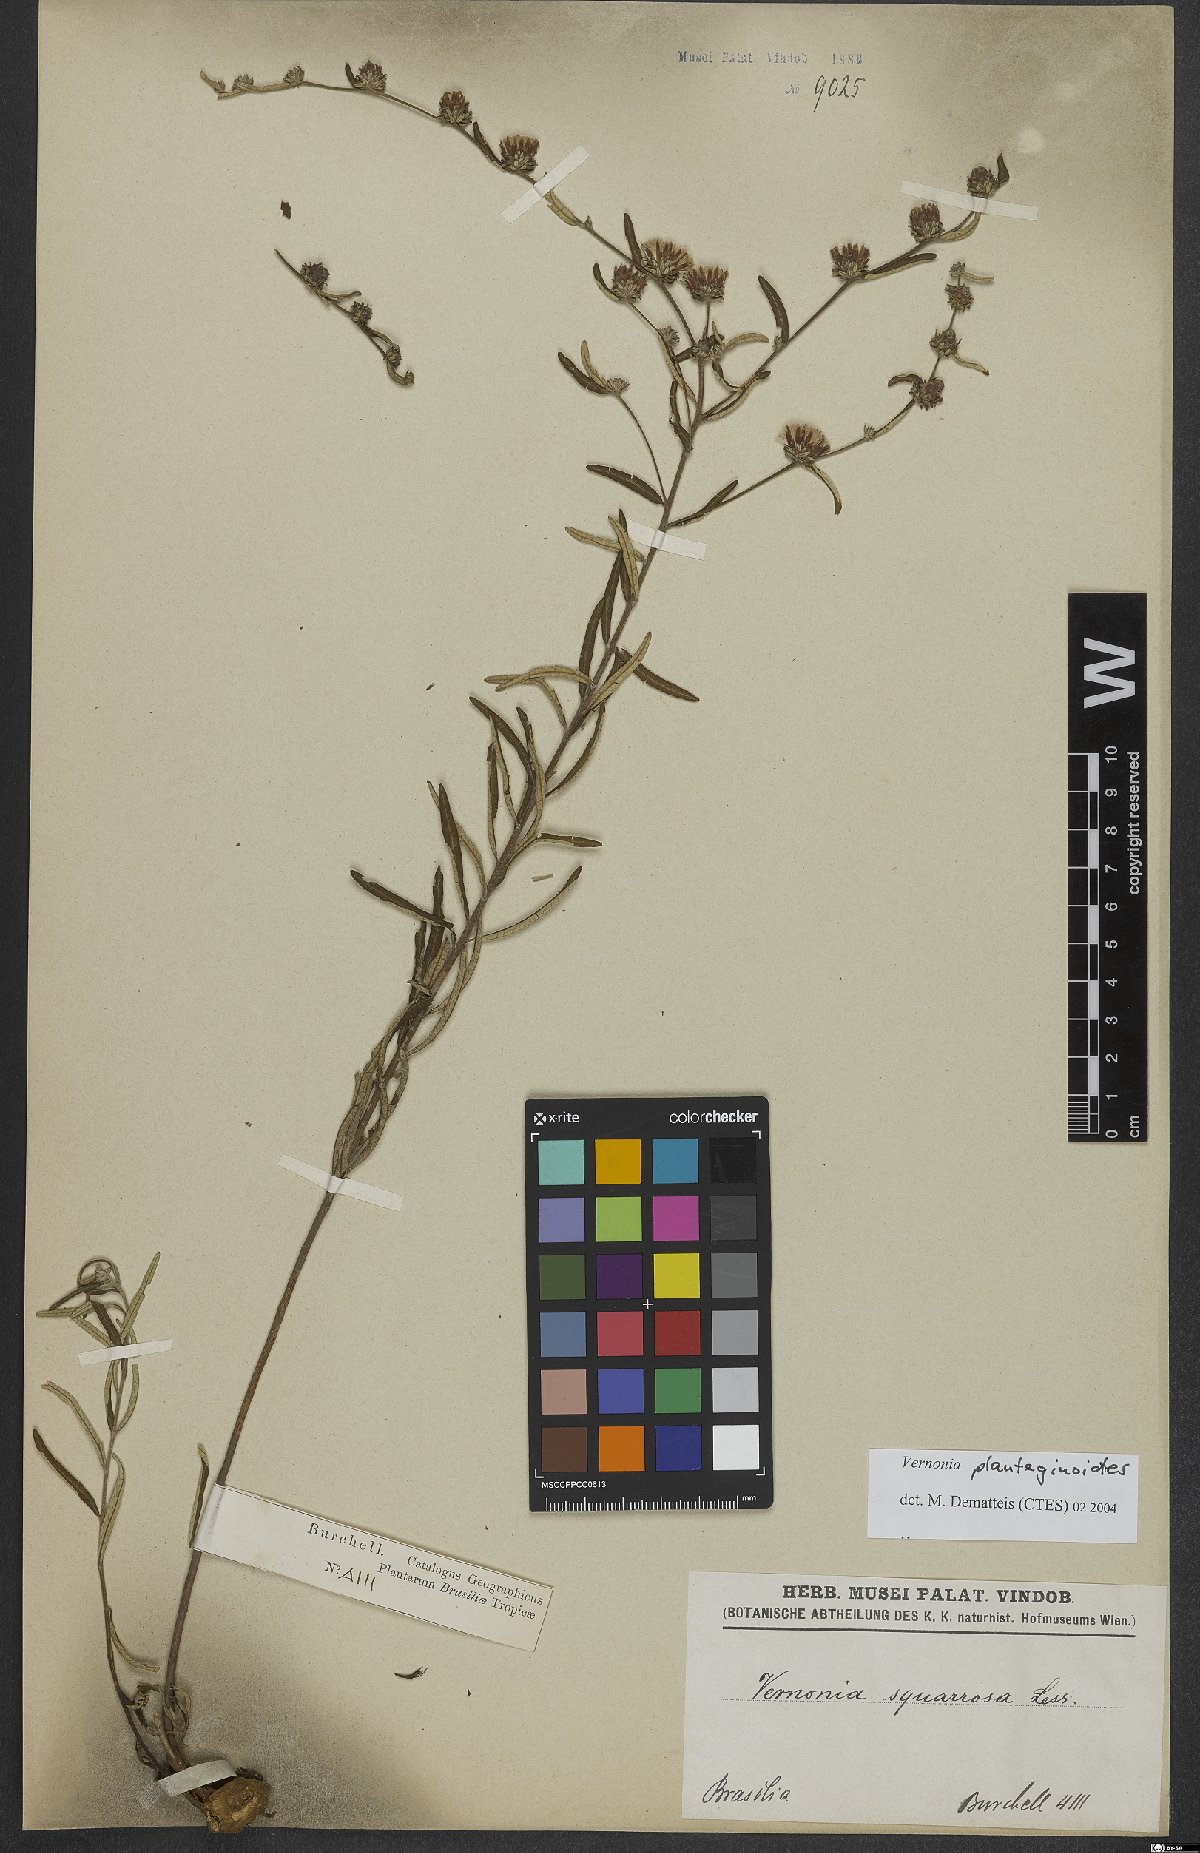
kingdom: Plantae
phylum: Tracheophyta
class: Magnoliopsida
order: Asterales
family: Asteraceae
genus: Lessingianthus
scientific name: Lessingianthus plantaginoides
